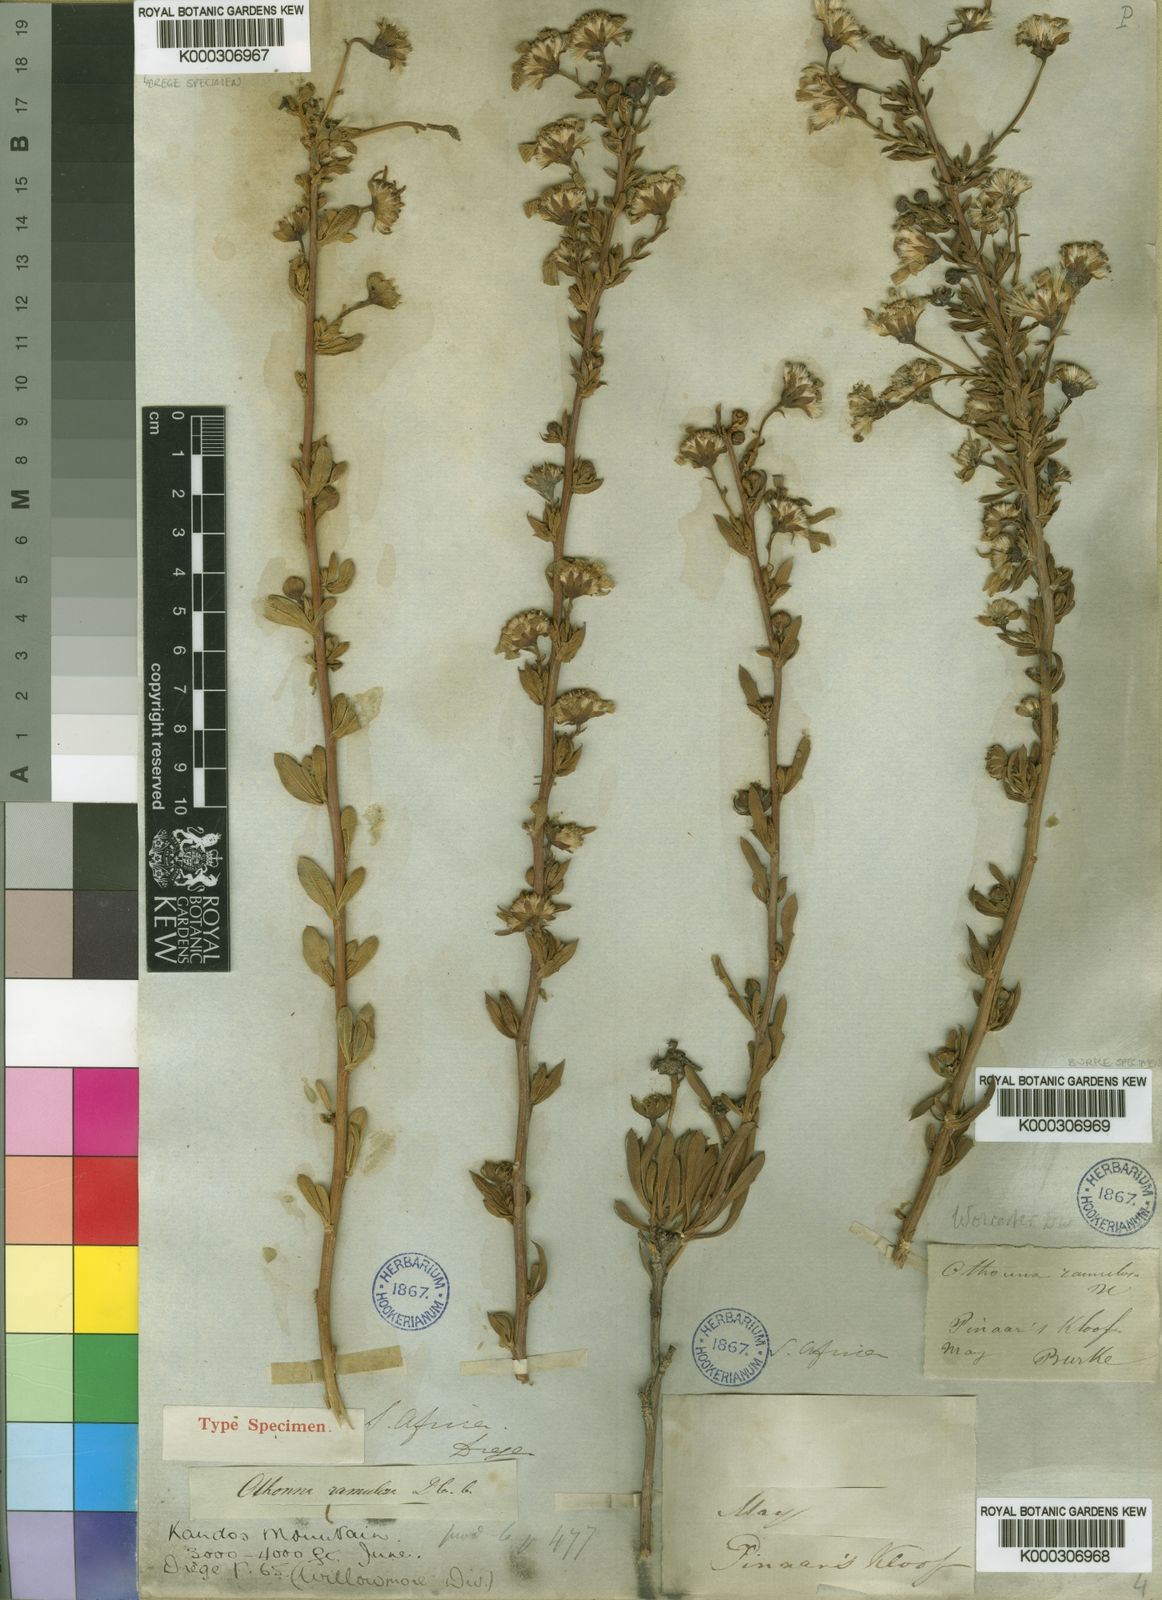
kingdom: Plantae
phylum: Tracheophyta
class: Magnoliopsida
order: Asterales
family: Asteraceae
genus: Othonna
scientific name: Othonna ramulosa
